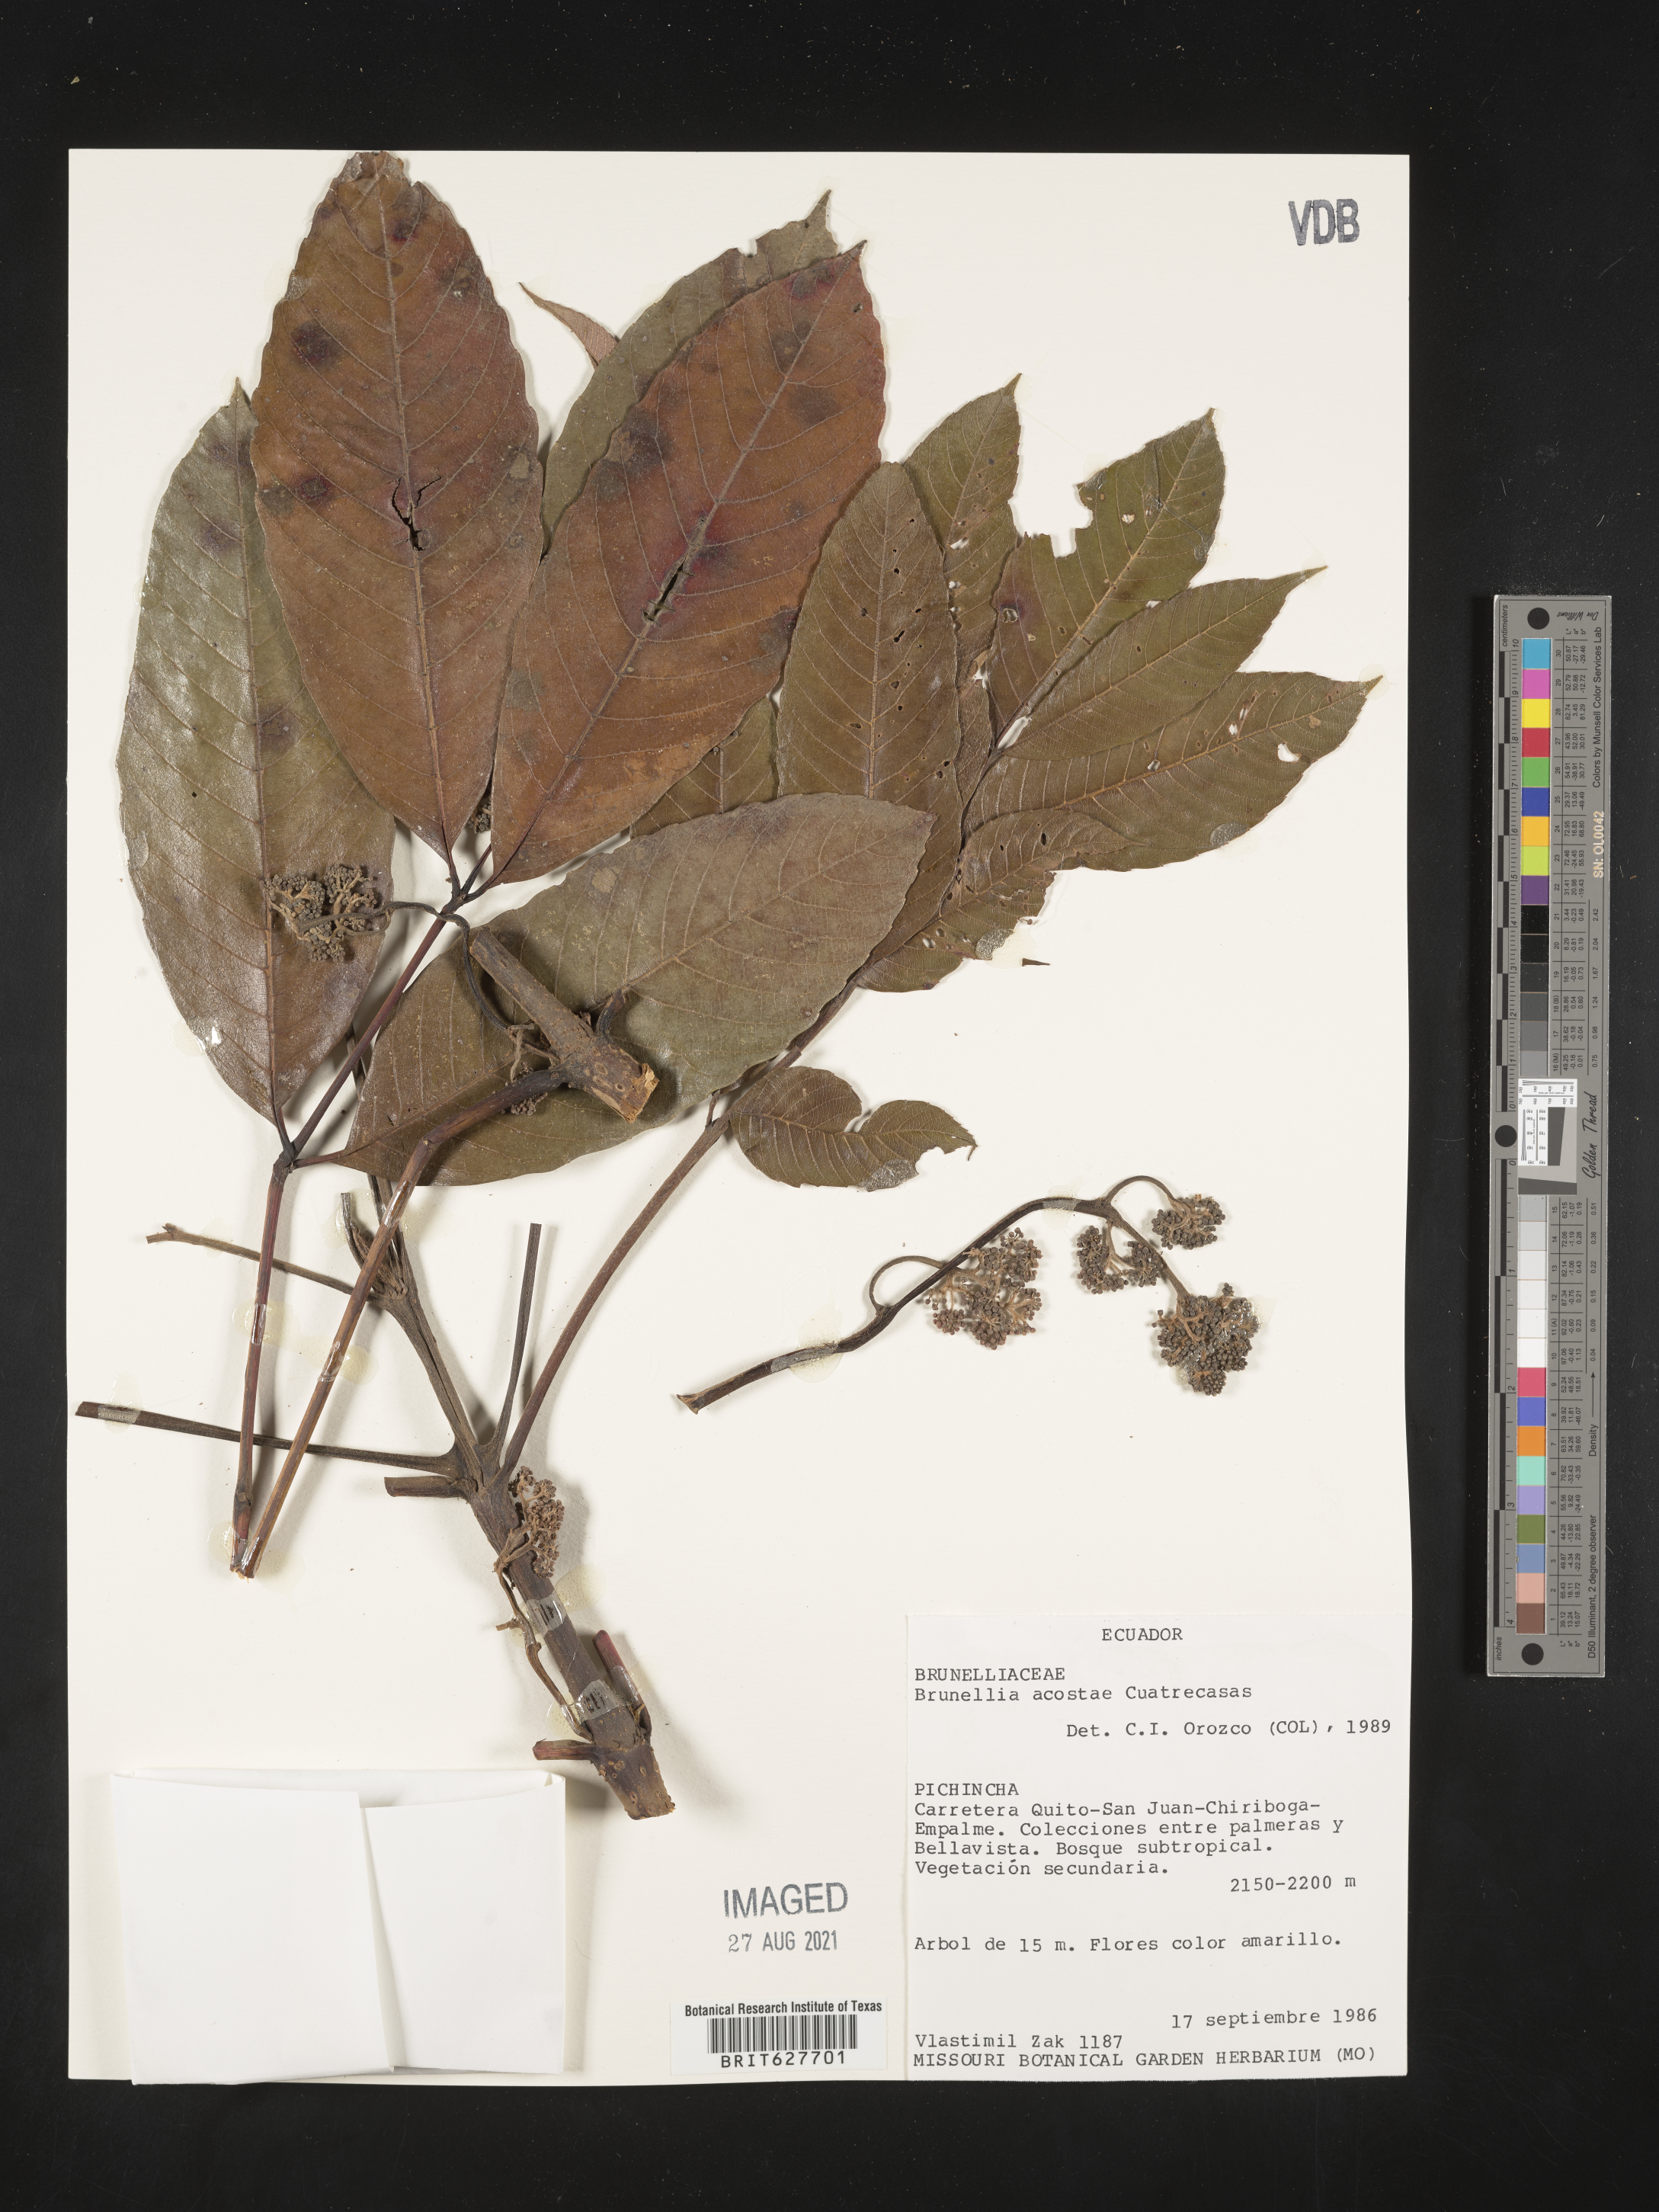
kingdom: Plantae
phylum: Tracheophyta
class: Magnoliopsida
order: Oxalidales
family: Brunelliaceae
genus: Brunellia
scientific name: Brunellia acostae
